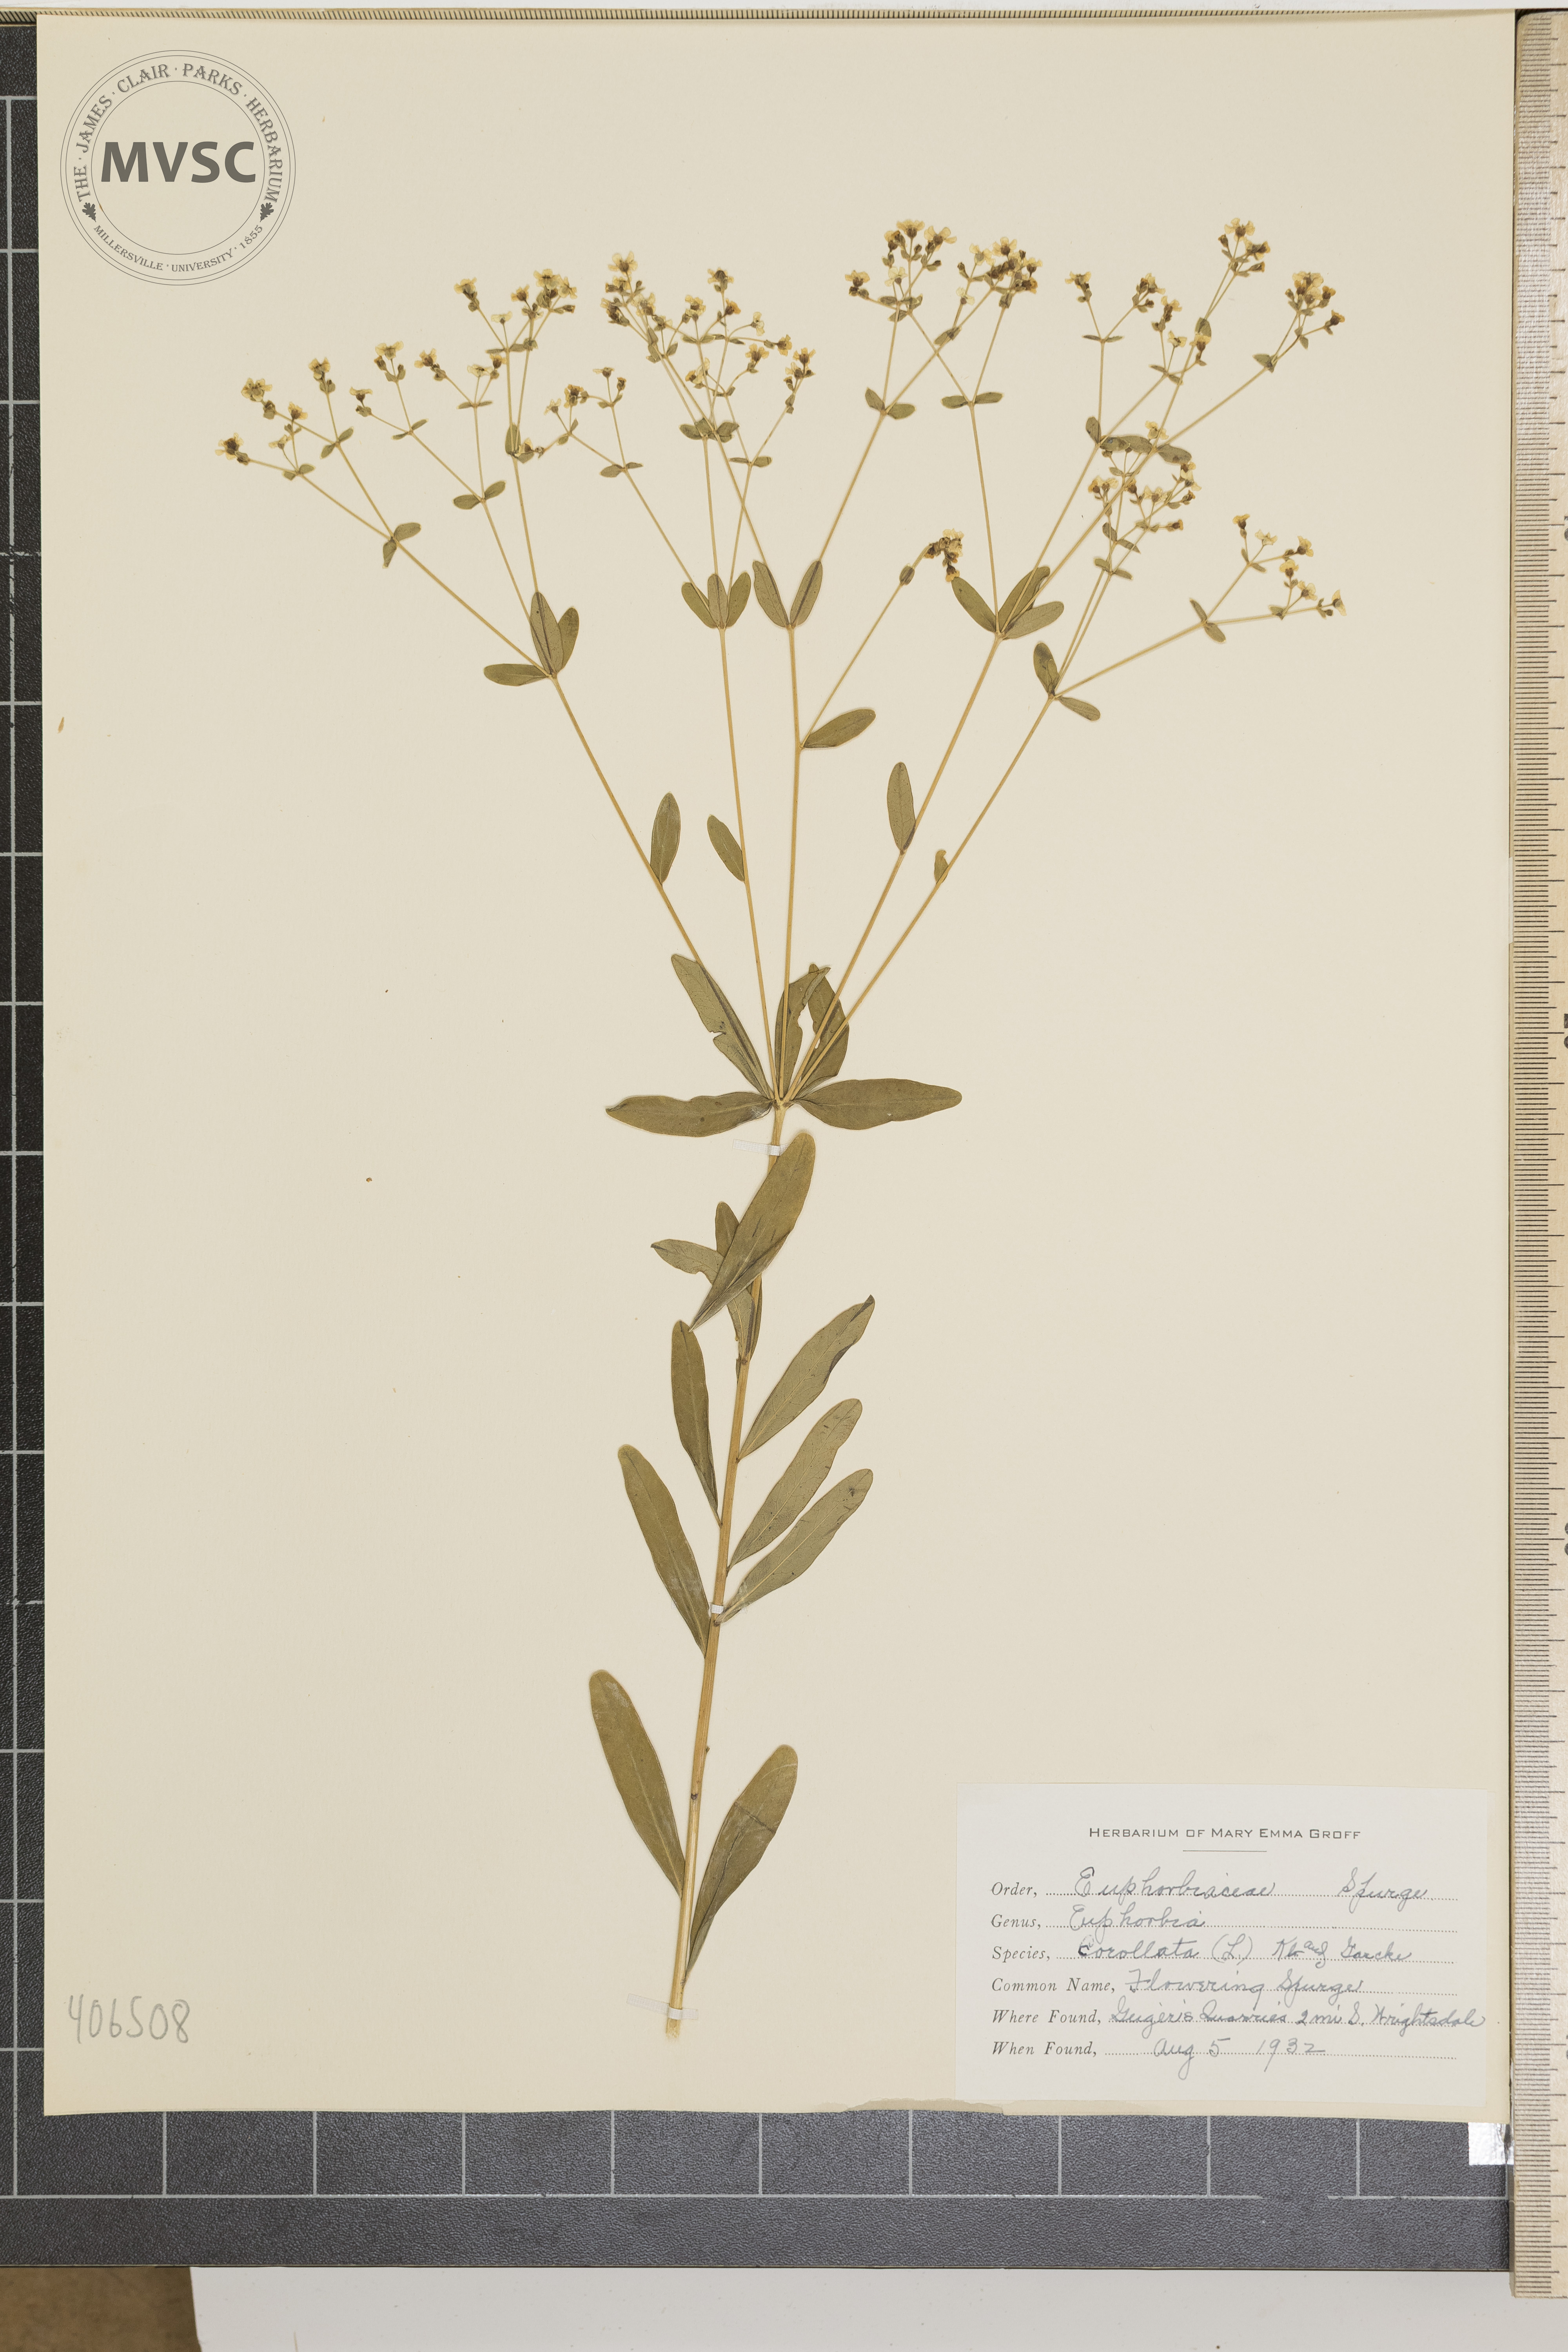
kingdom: Plantae
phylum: Tracheophyta
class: Magnoliopsida
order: Malpighiales
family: Euphorbiaceae
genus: Euphorbia
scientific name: Euphorbia corollata
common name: Flowering Spurge
